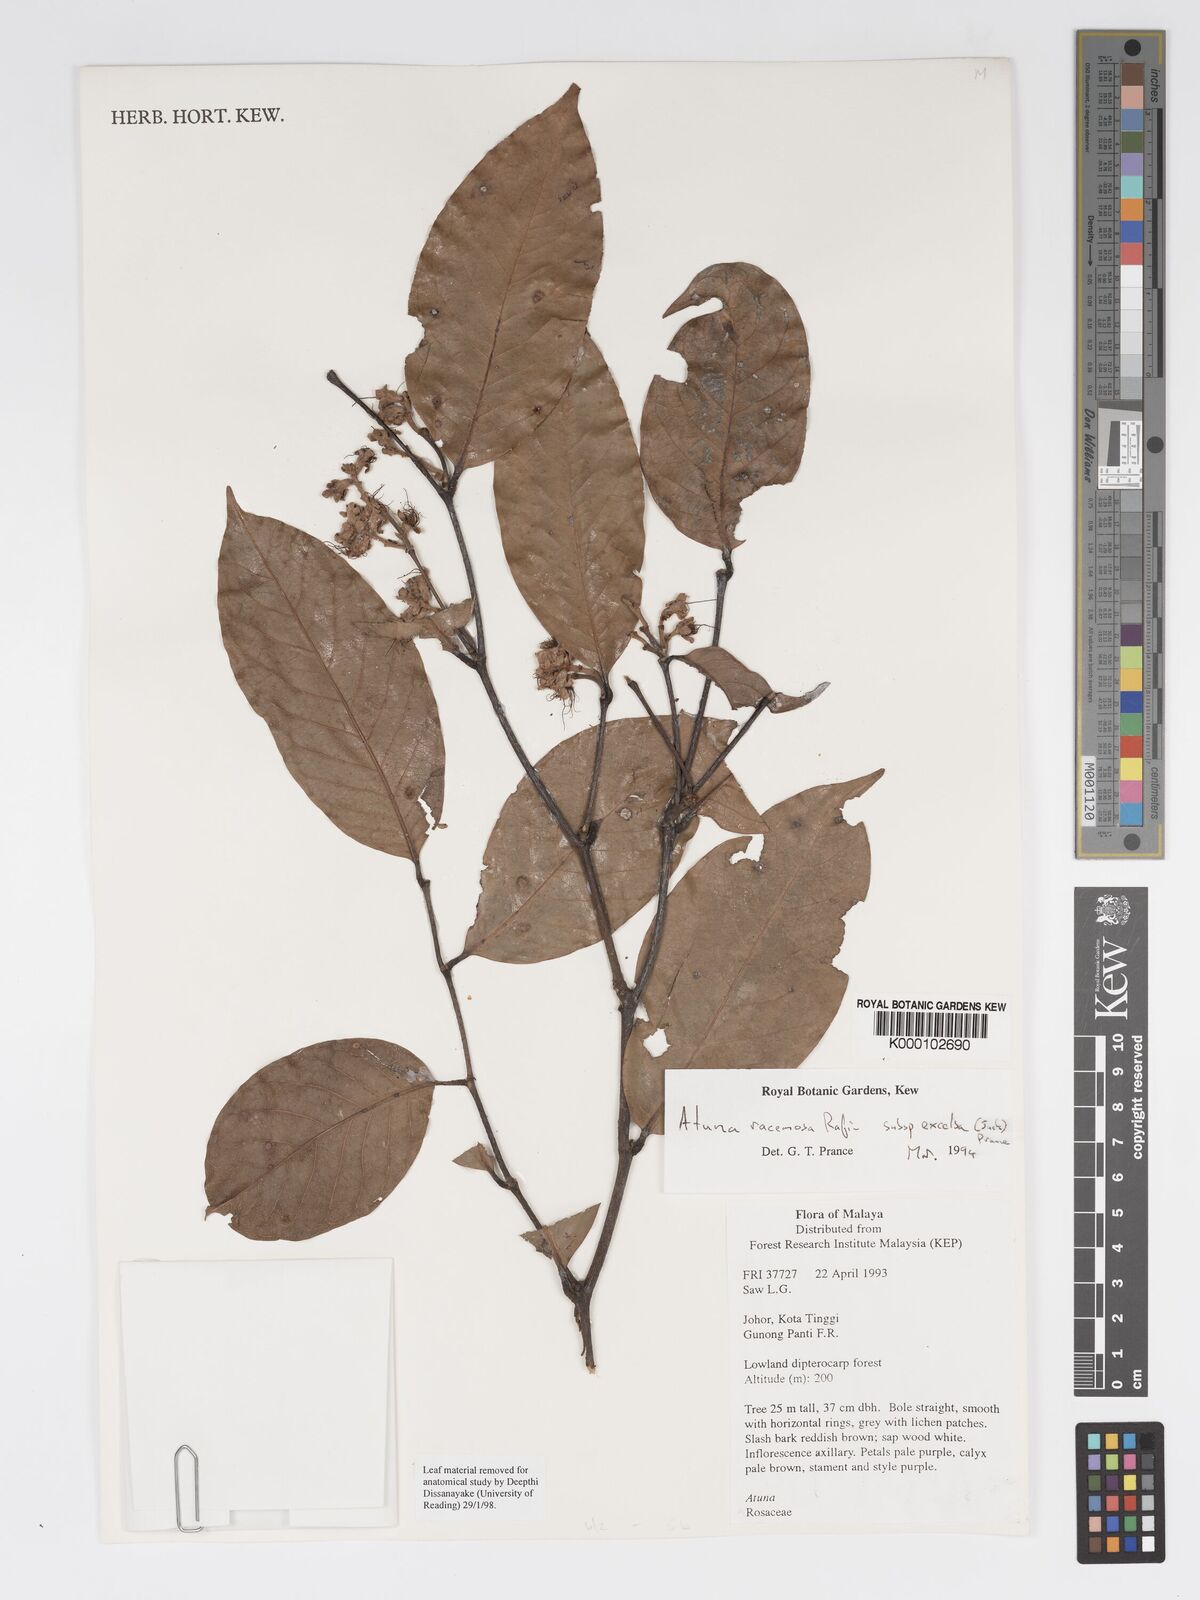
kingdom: Plantae
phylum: Tracheophyta
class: Magnoliopsida
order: Malpighiales
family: Chrysobalanaceae
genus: Atuna
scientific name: Atuna excelsa
